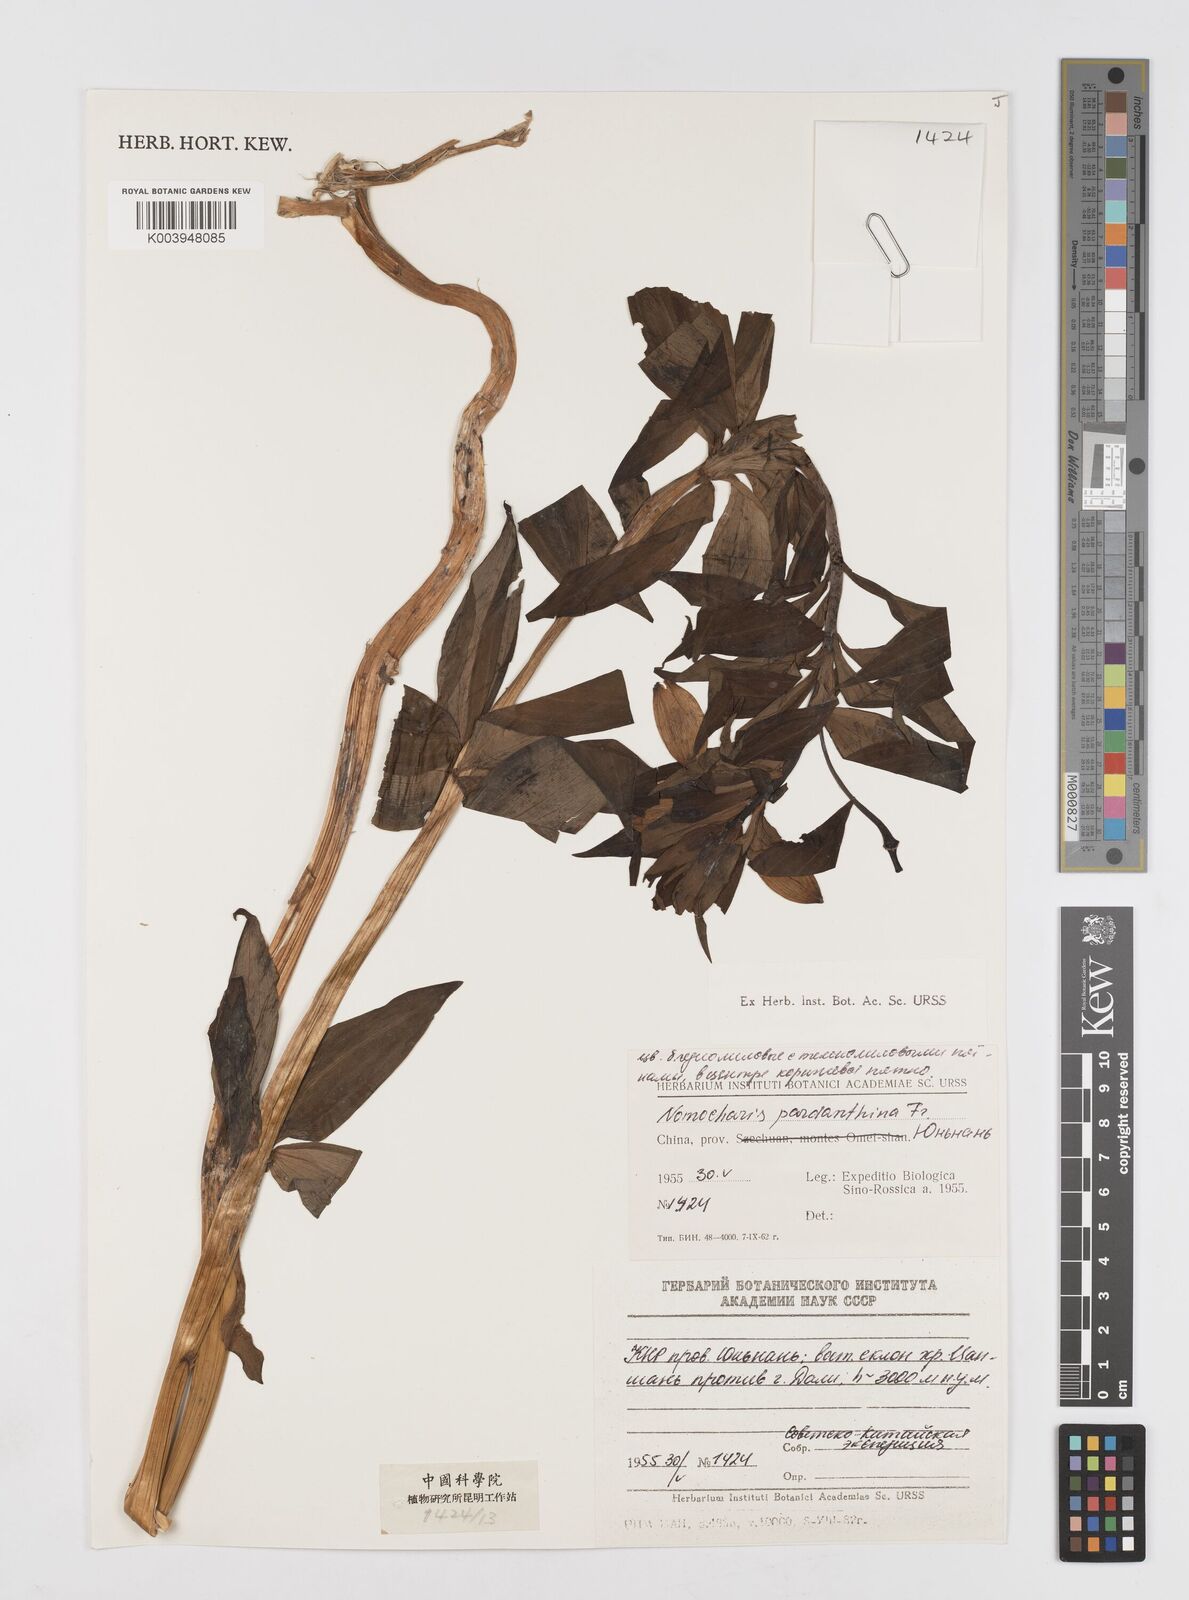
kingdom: Plantae
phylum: Tracheophyta
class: Liliopsida
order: Liliales
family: Liliaceae
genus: Lilium
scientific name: Lilium pardanthinum
